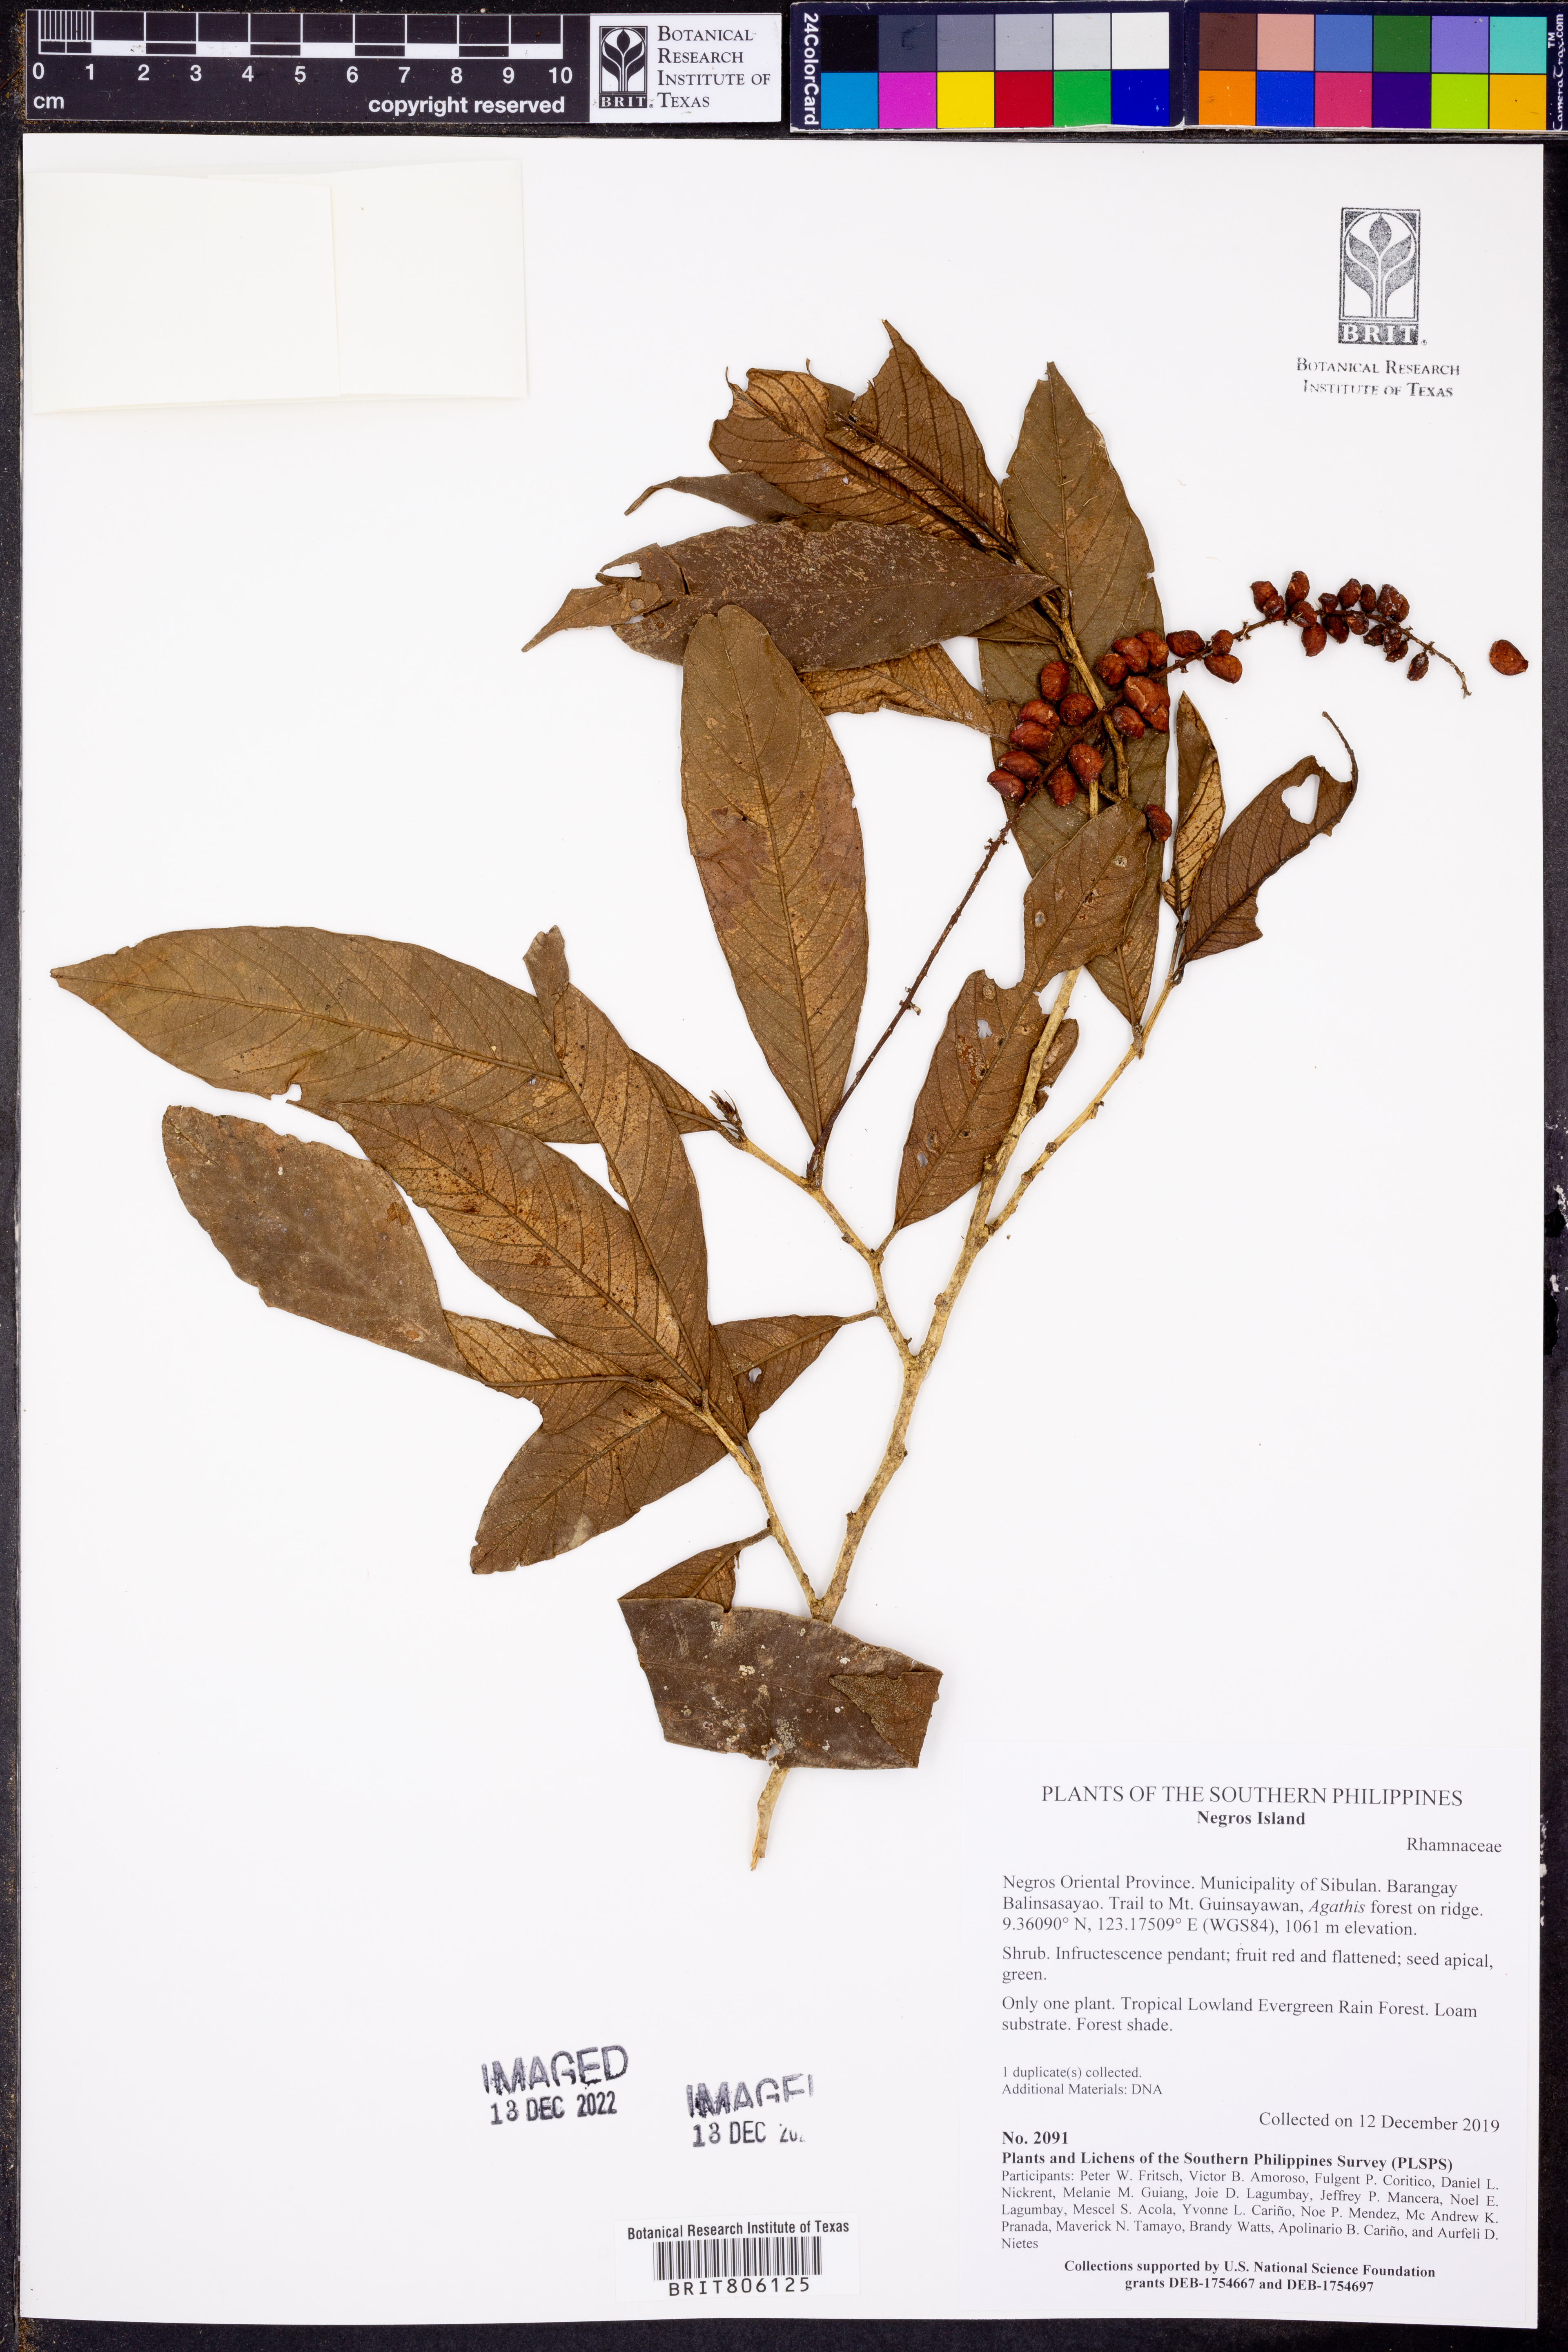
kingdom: Plantae
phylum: Tracheophyta
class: Magnoliopsida
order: Rosales
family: Rhamnaceae
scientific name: Rhamnaceae
